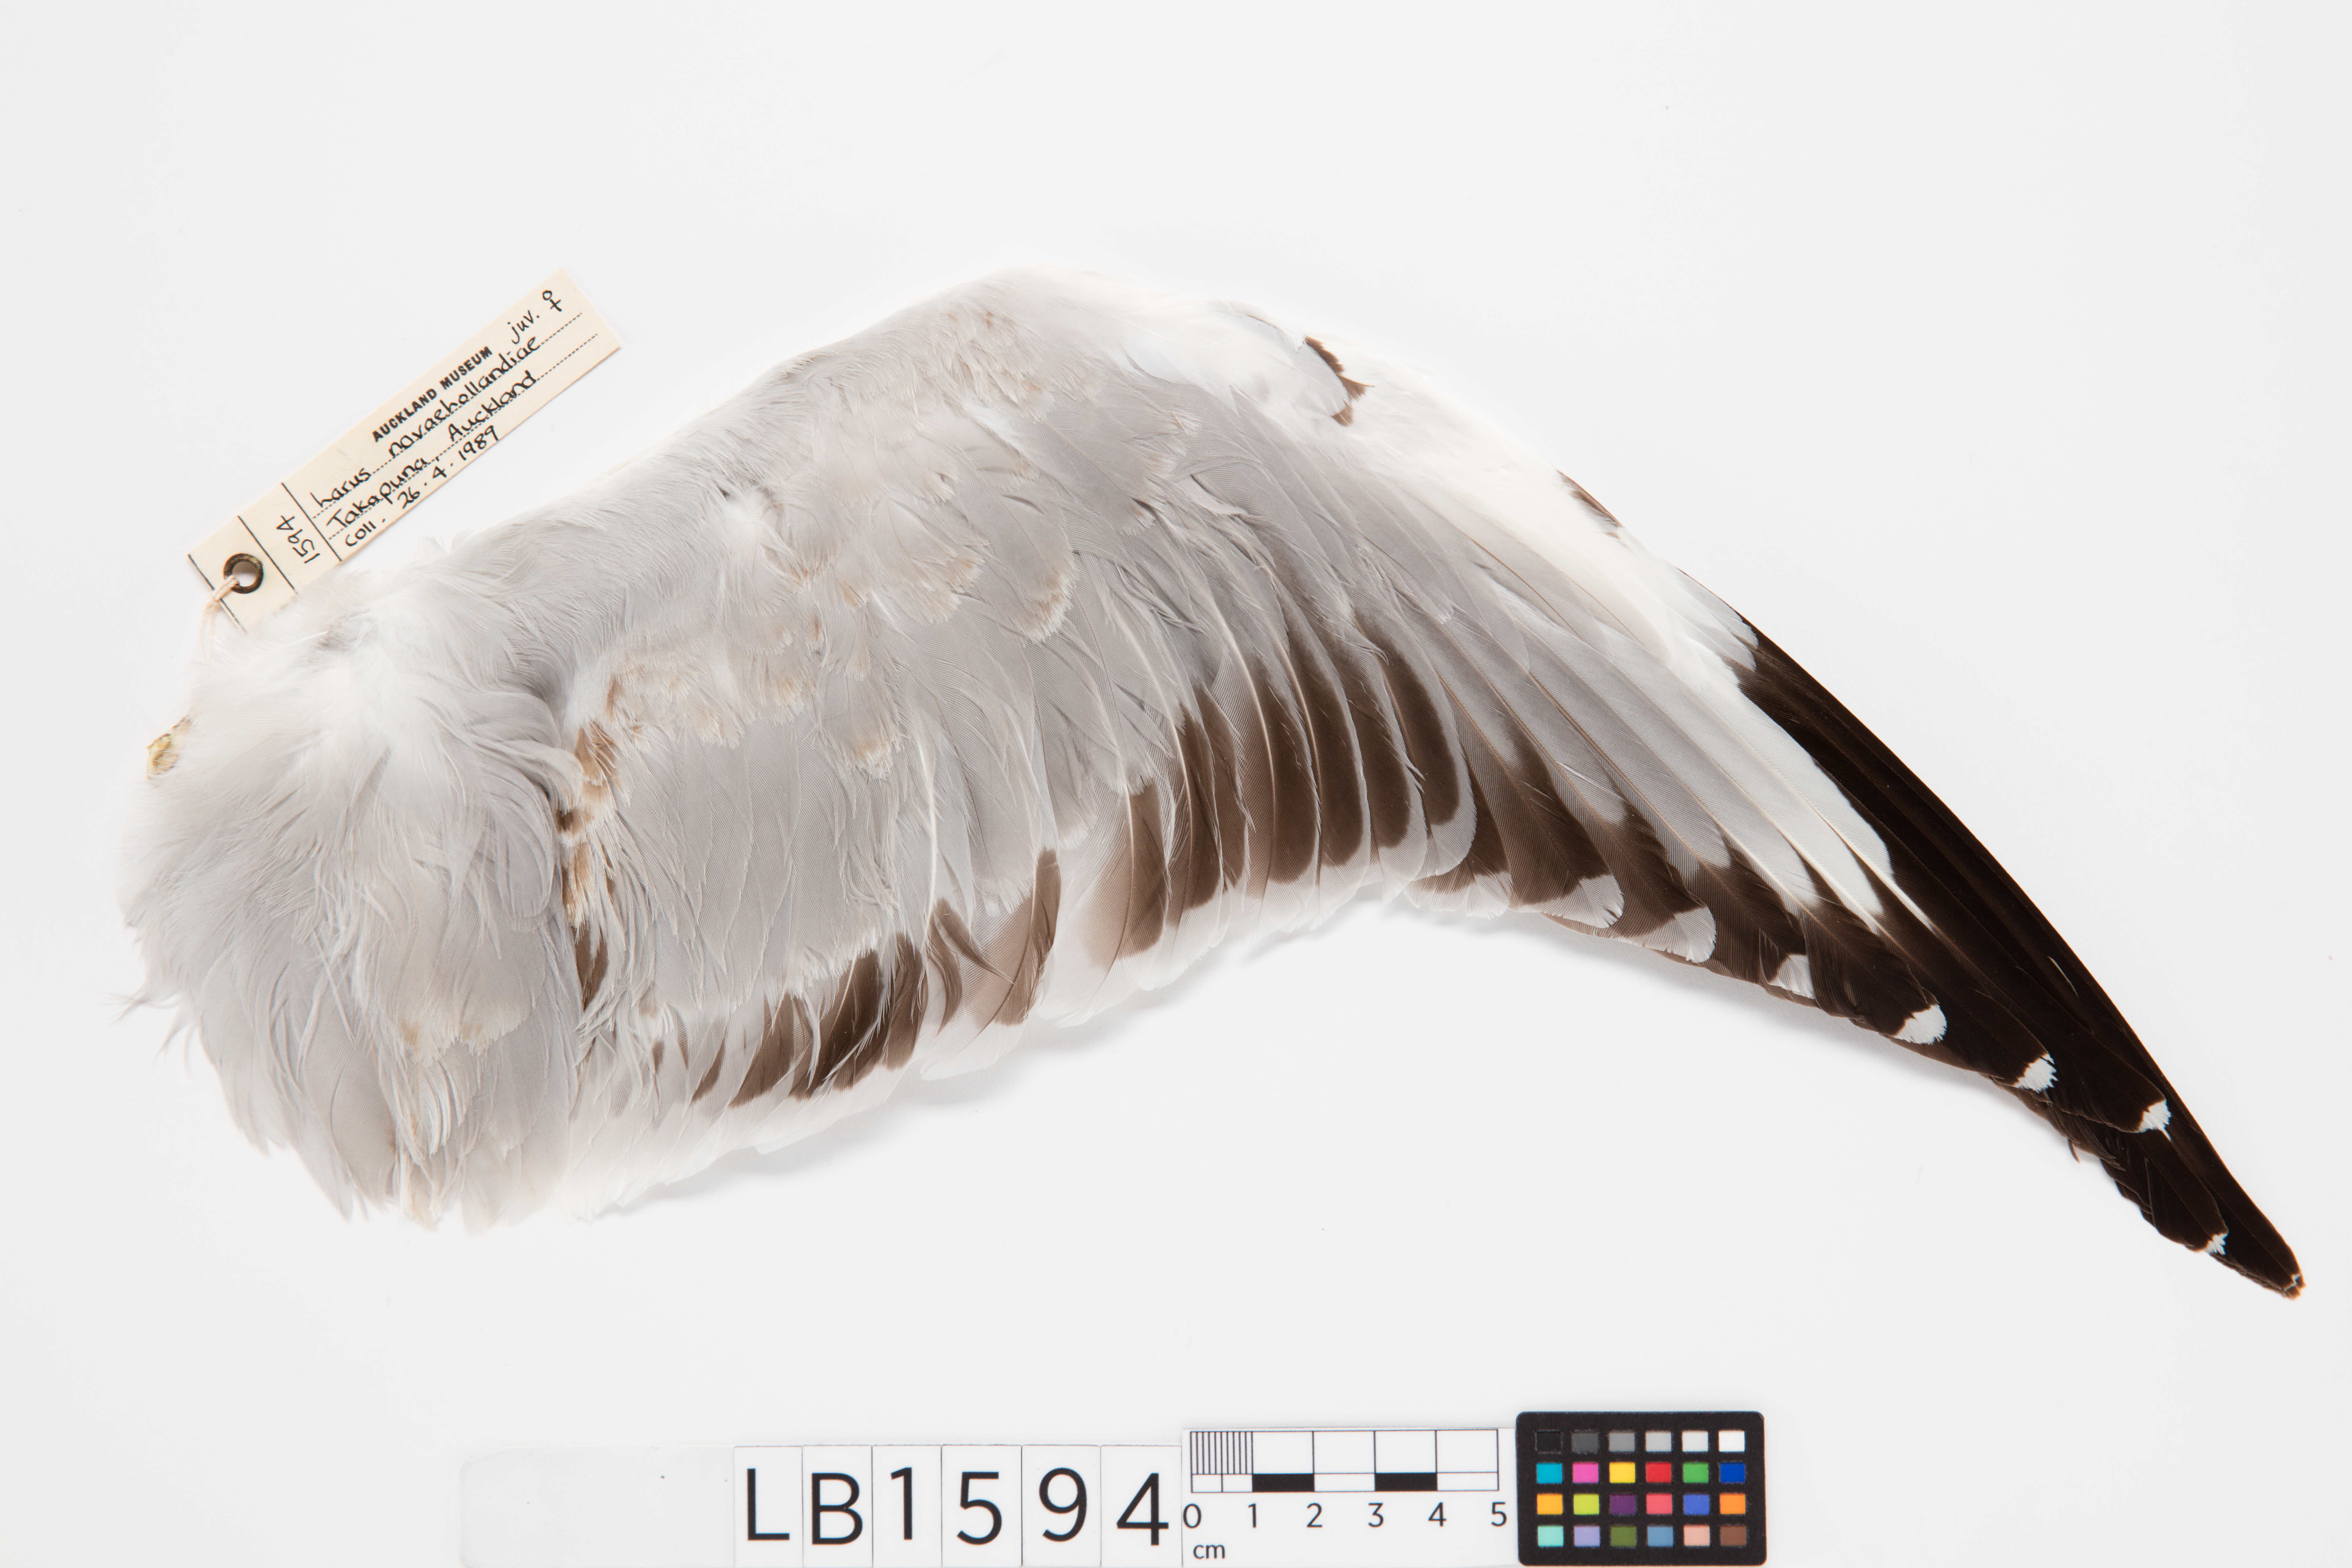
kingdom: Animalia
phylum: Chordata
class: Aves
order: Charadriiformes
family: Laridae
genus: Chroicocephalus
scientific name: Chroicocephalus novaehollandiae
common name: Silver gull
